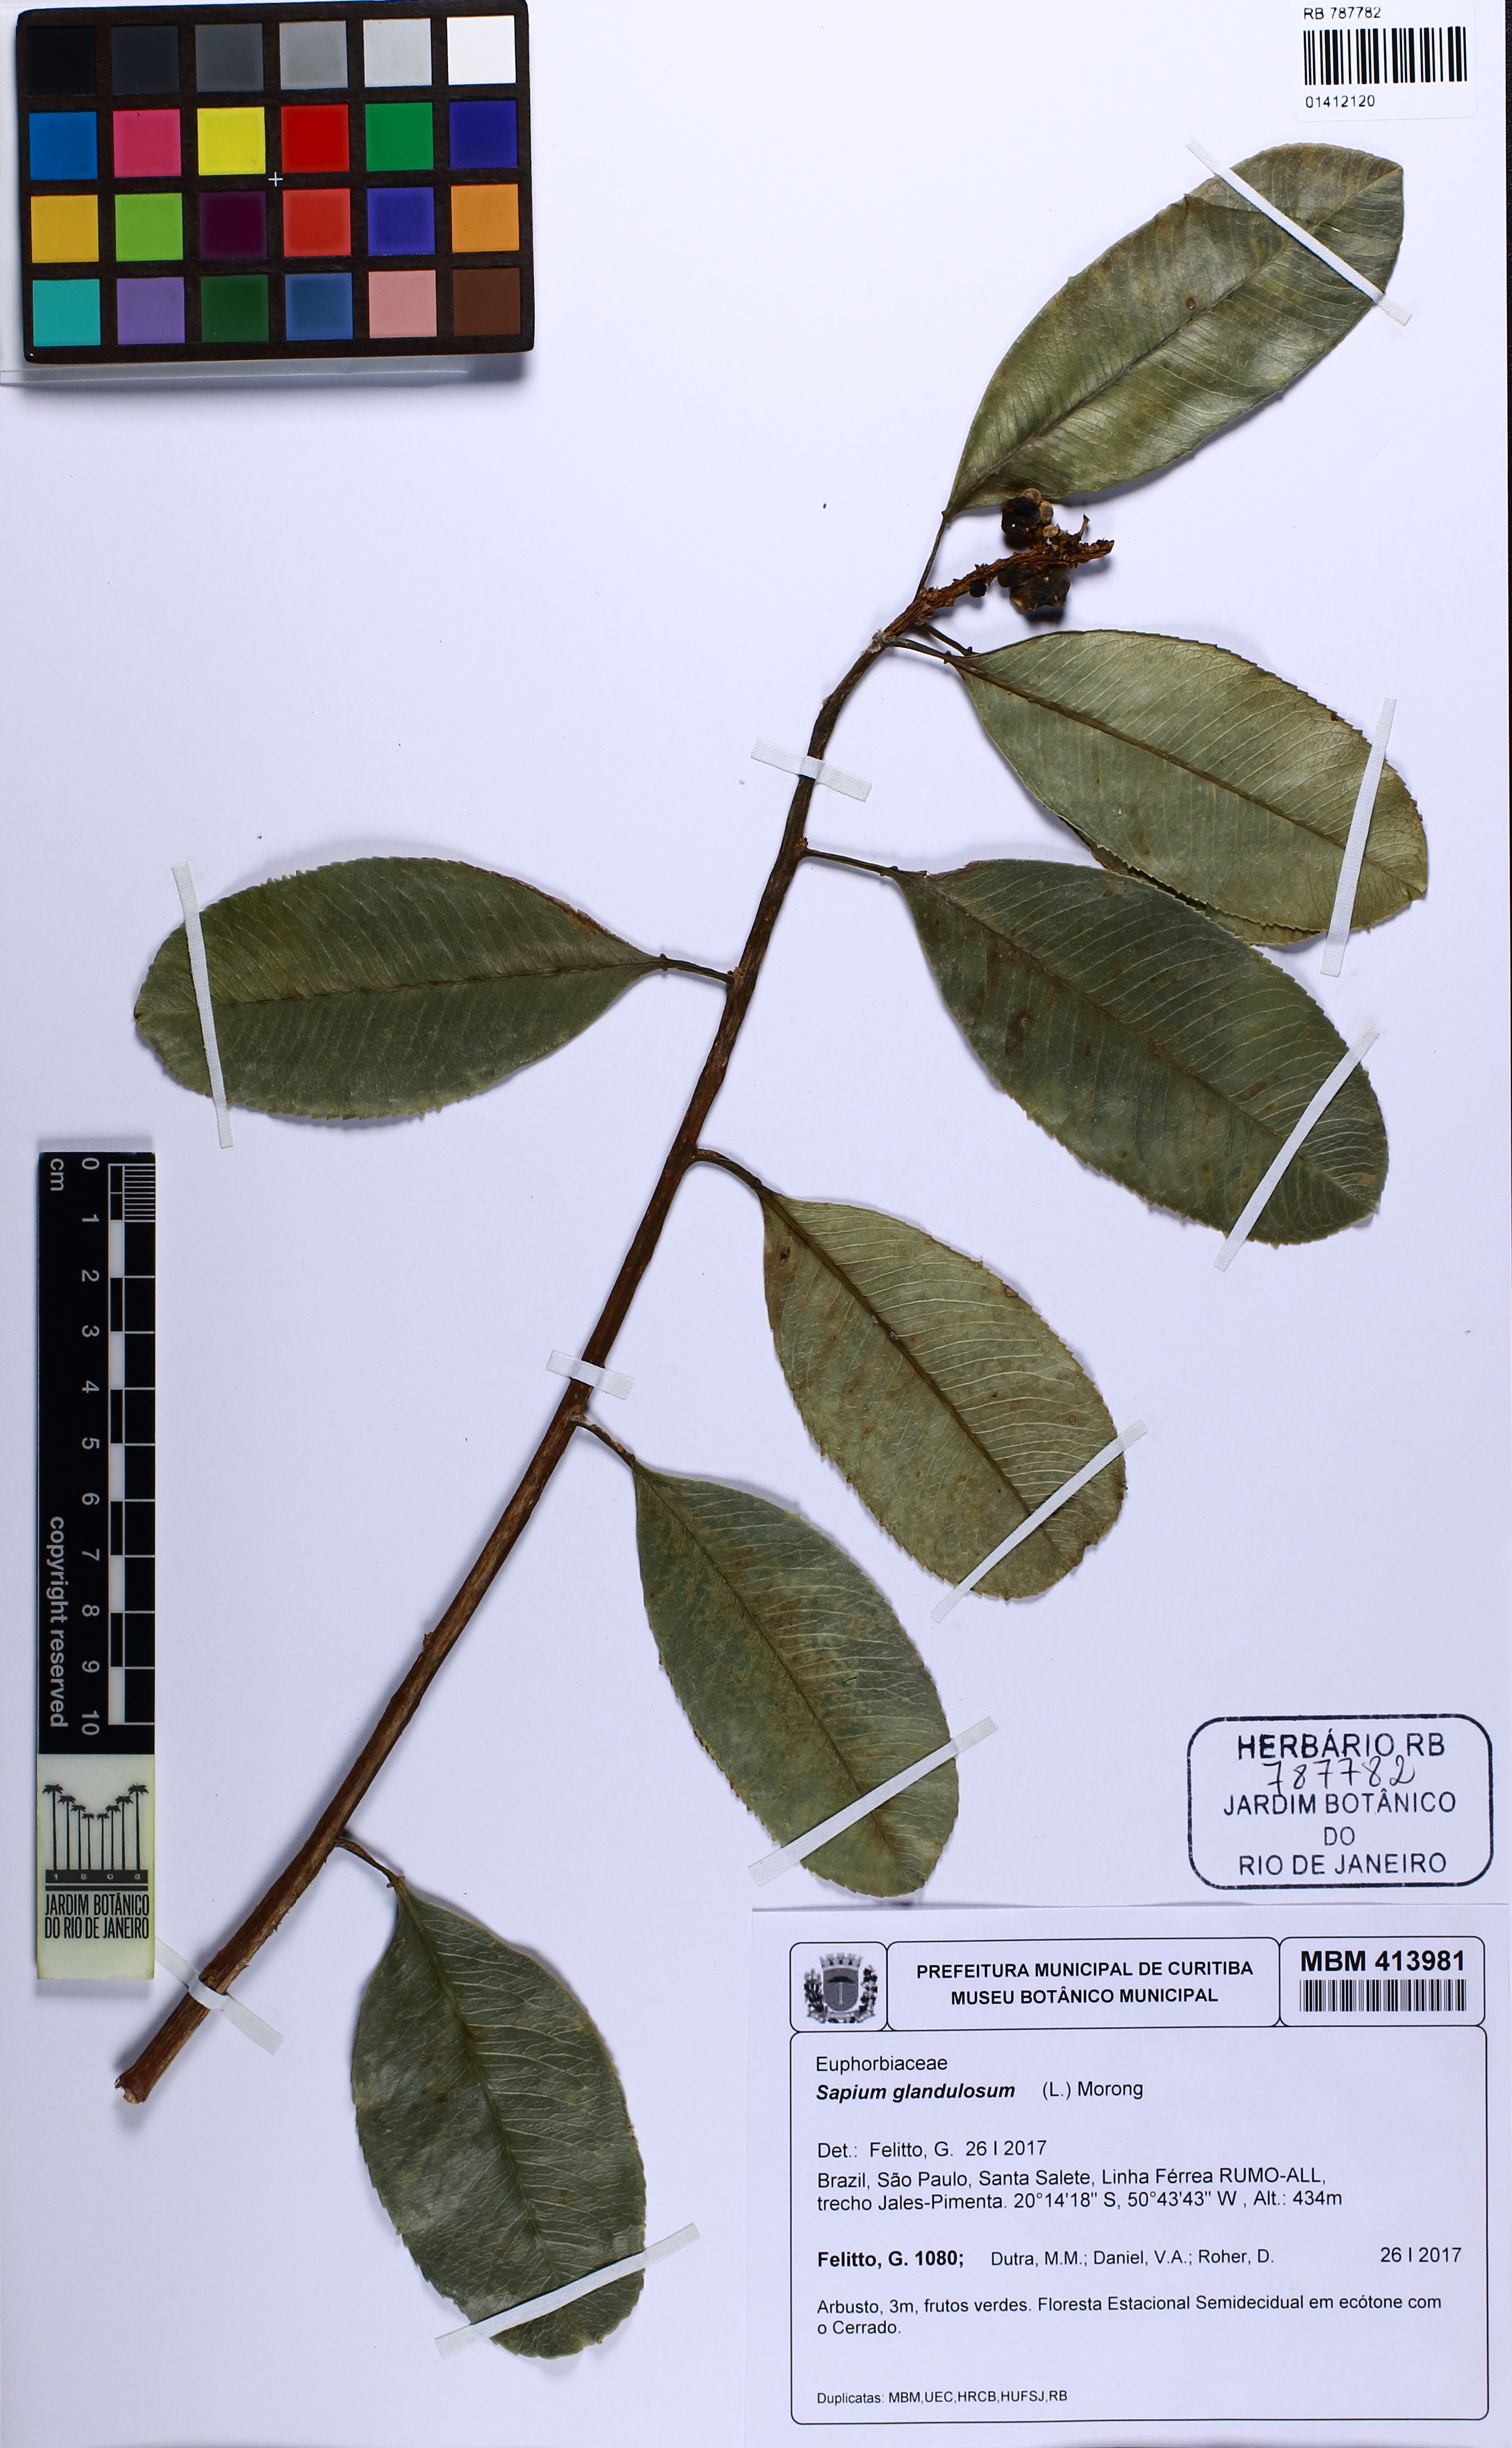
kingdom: Plantae
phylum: Tracheophyta
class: Magnoliopsida
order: Malpighiales
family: Euphorbiaceae
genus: Sapium
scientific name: Sapium glandulosum
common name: Milktree
